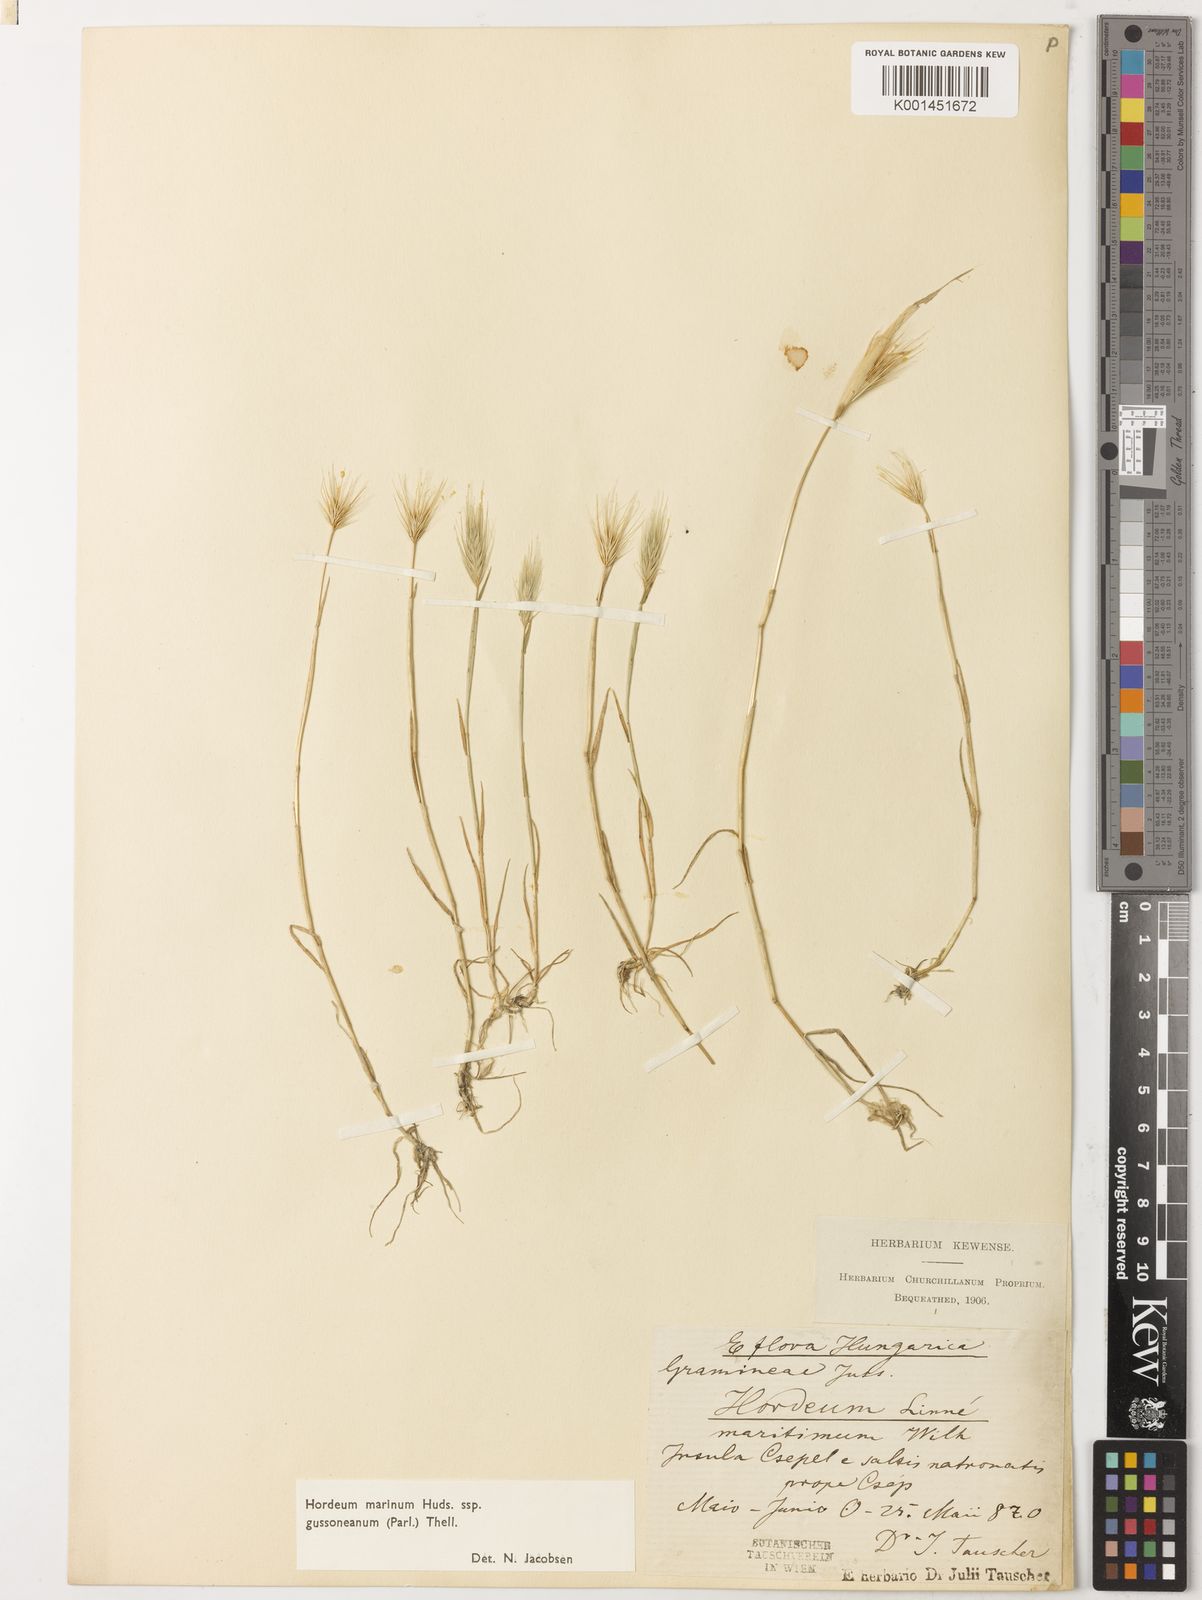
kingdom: Plantae
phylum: Tracheophyta
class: Liliopsida
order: Poales
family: Poaceae
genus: Hordeum
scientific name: Hordeum marinum
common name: Sea barley
